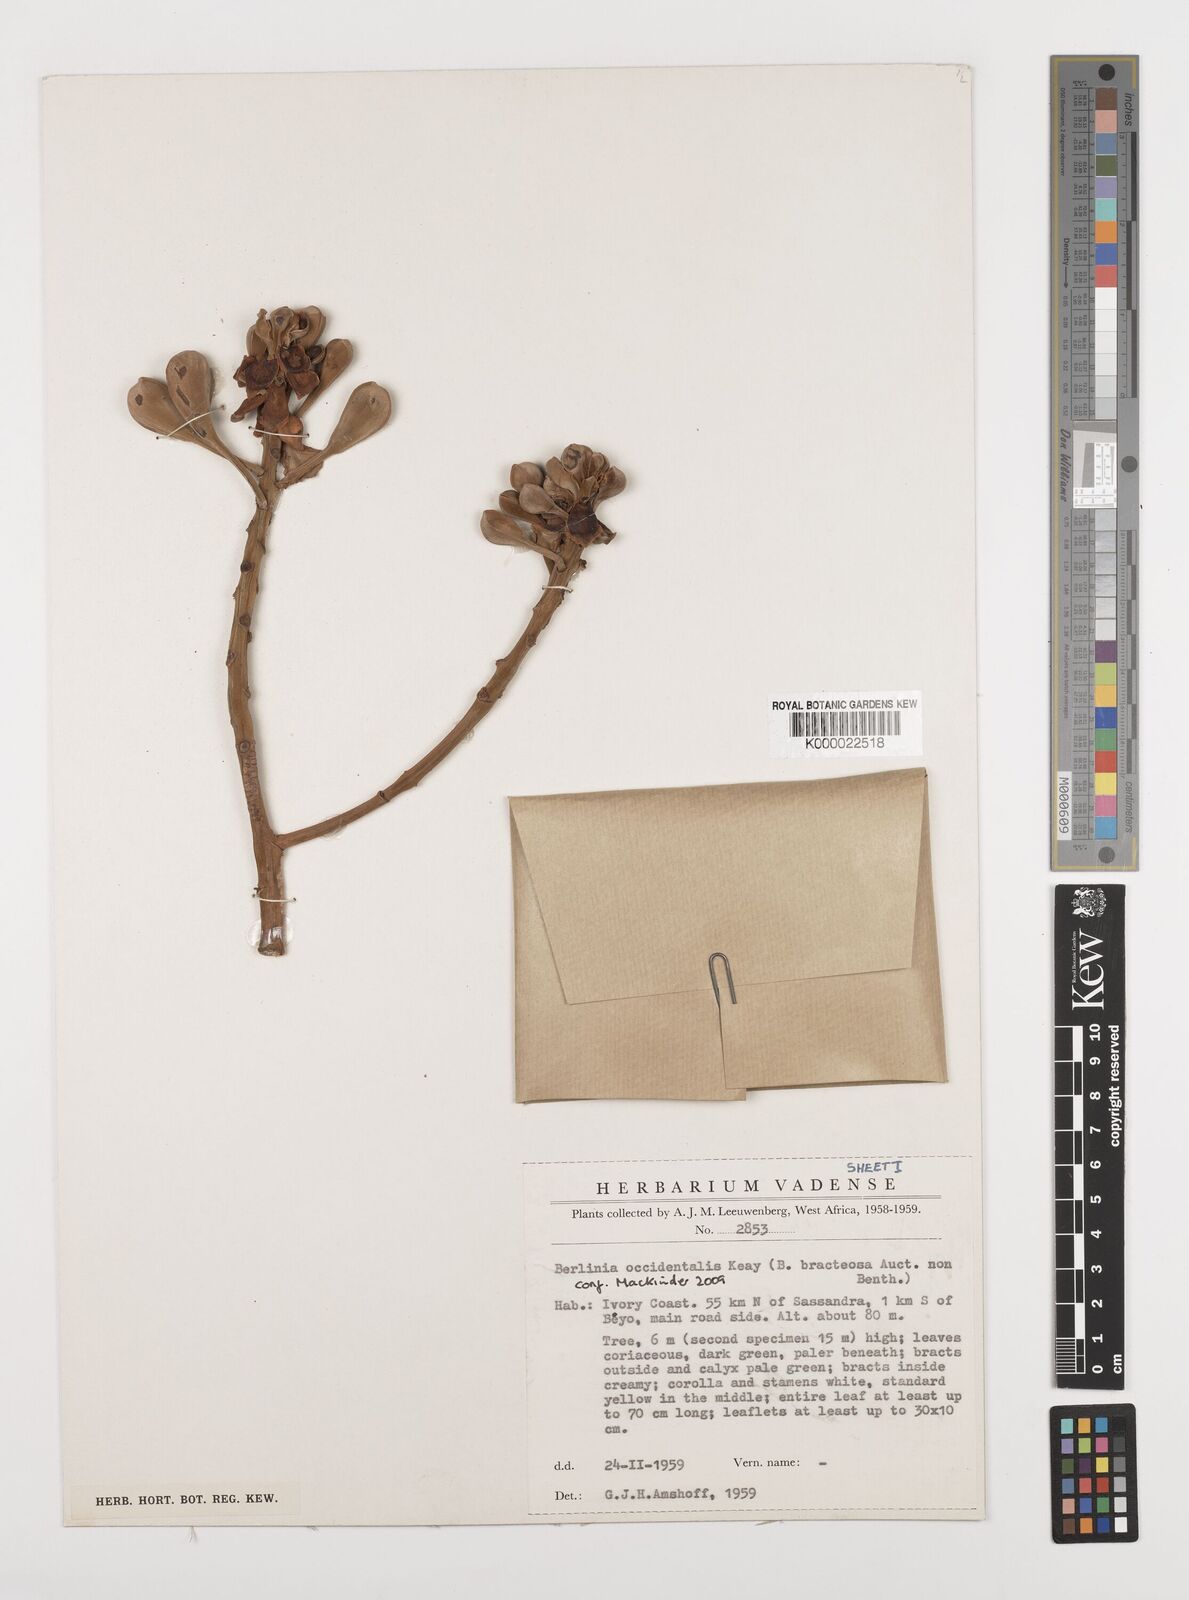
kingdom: Plantae
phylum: Tracheophyta
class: Magnoliopsida
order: Fabales
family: Fabaceae
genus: Berlinia
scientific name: Berlinia occidentalis
